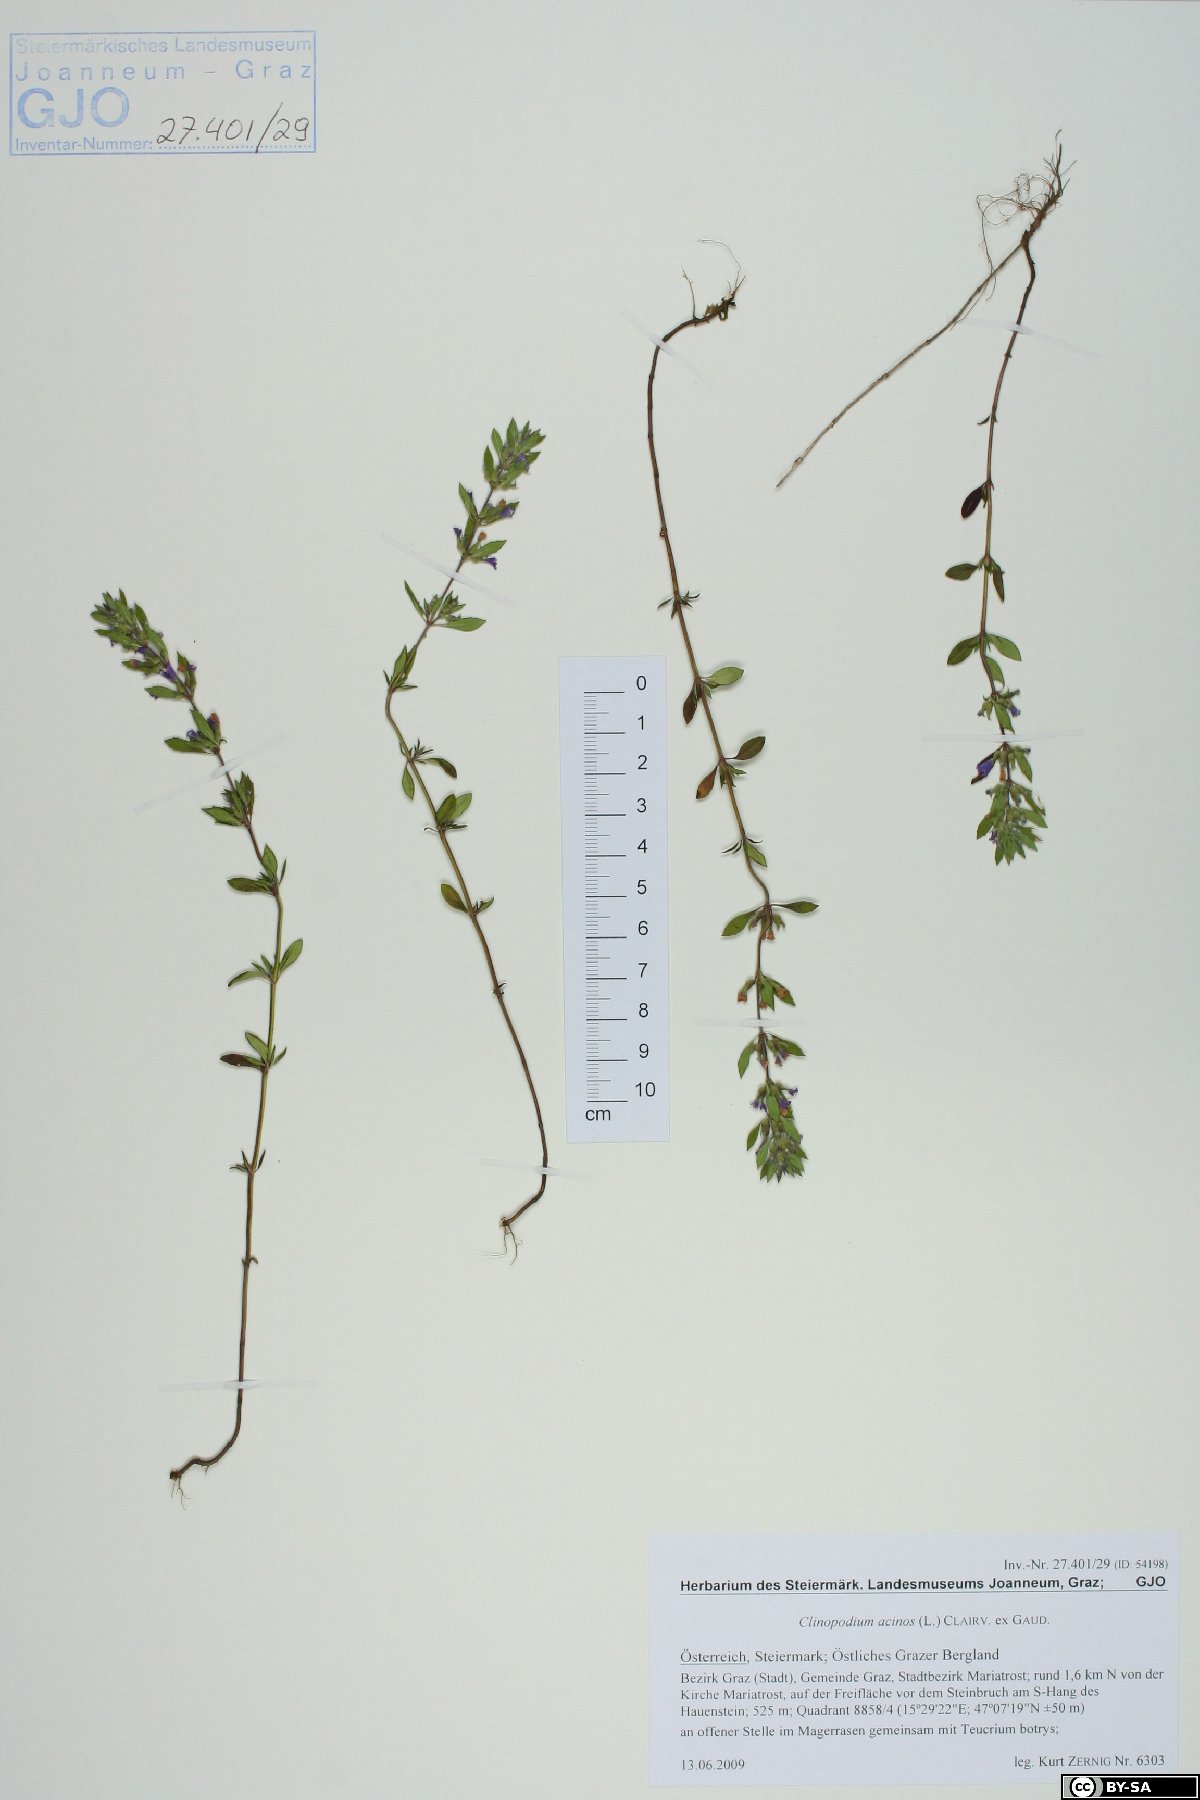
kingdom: Plantae
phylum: Tracheophyta
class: Magnoliopsida
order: Lamiales
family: Lamiaceae
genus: Clinopodium
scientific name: Clinopodium acinos
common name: Basil thyme
